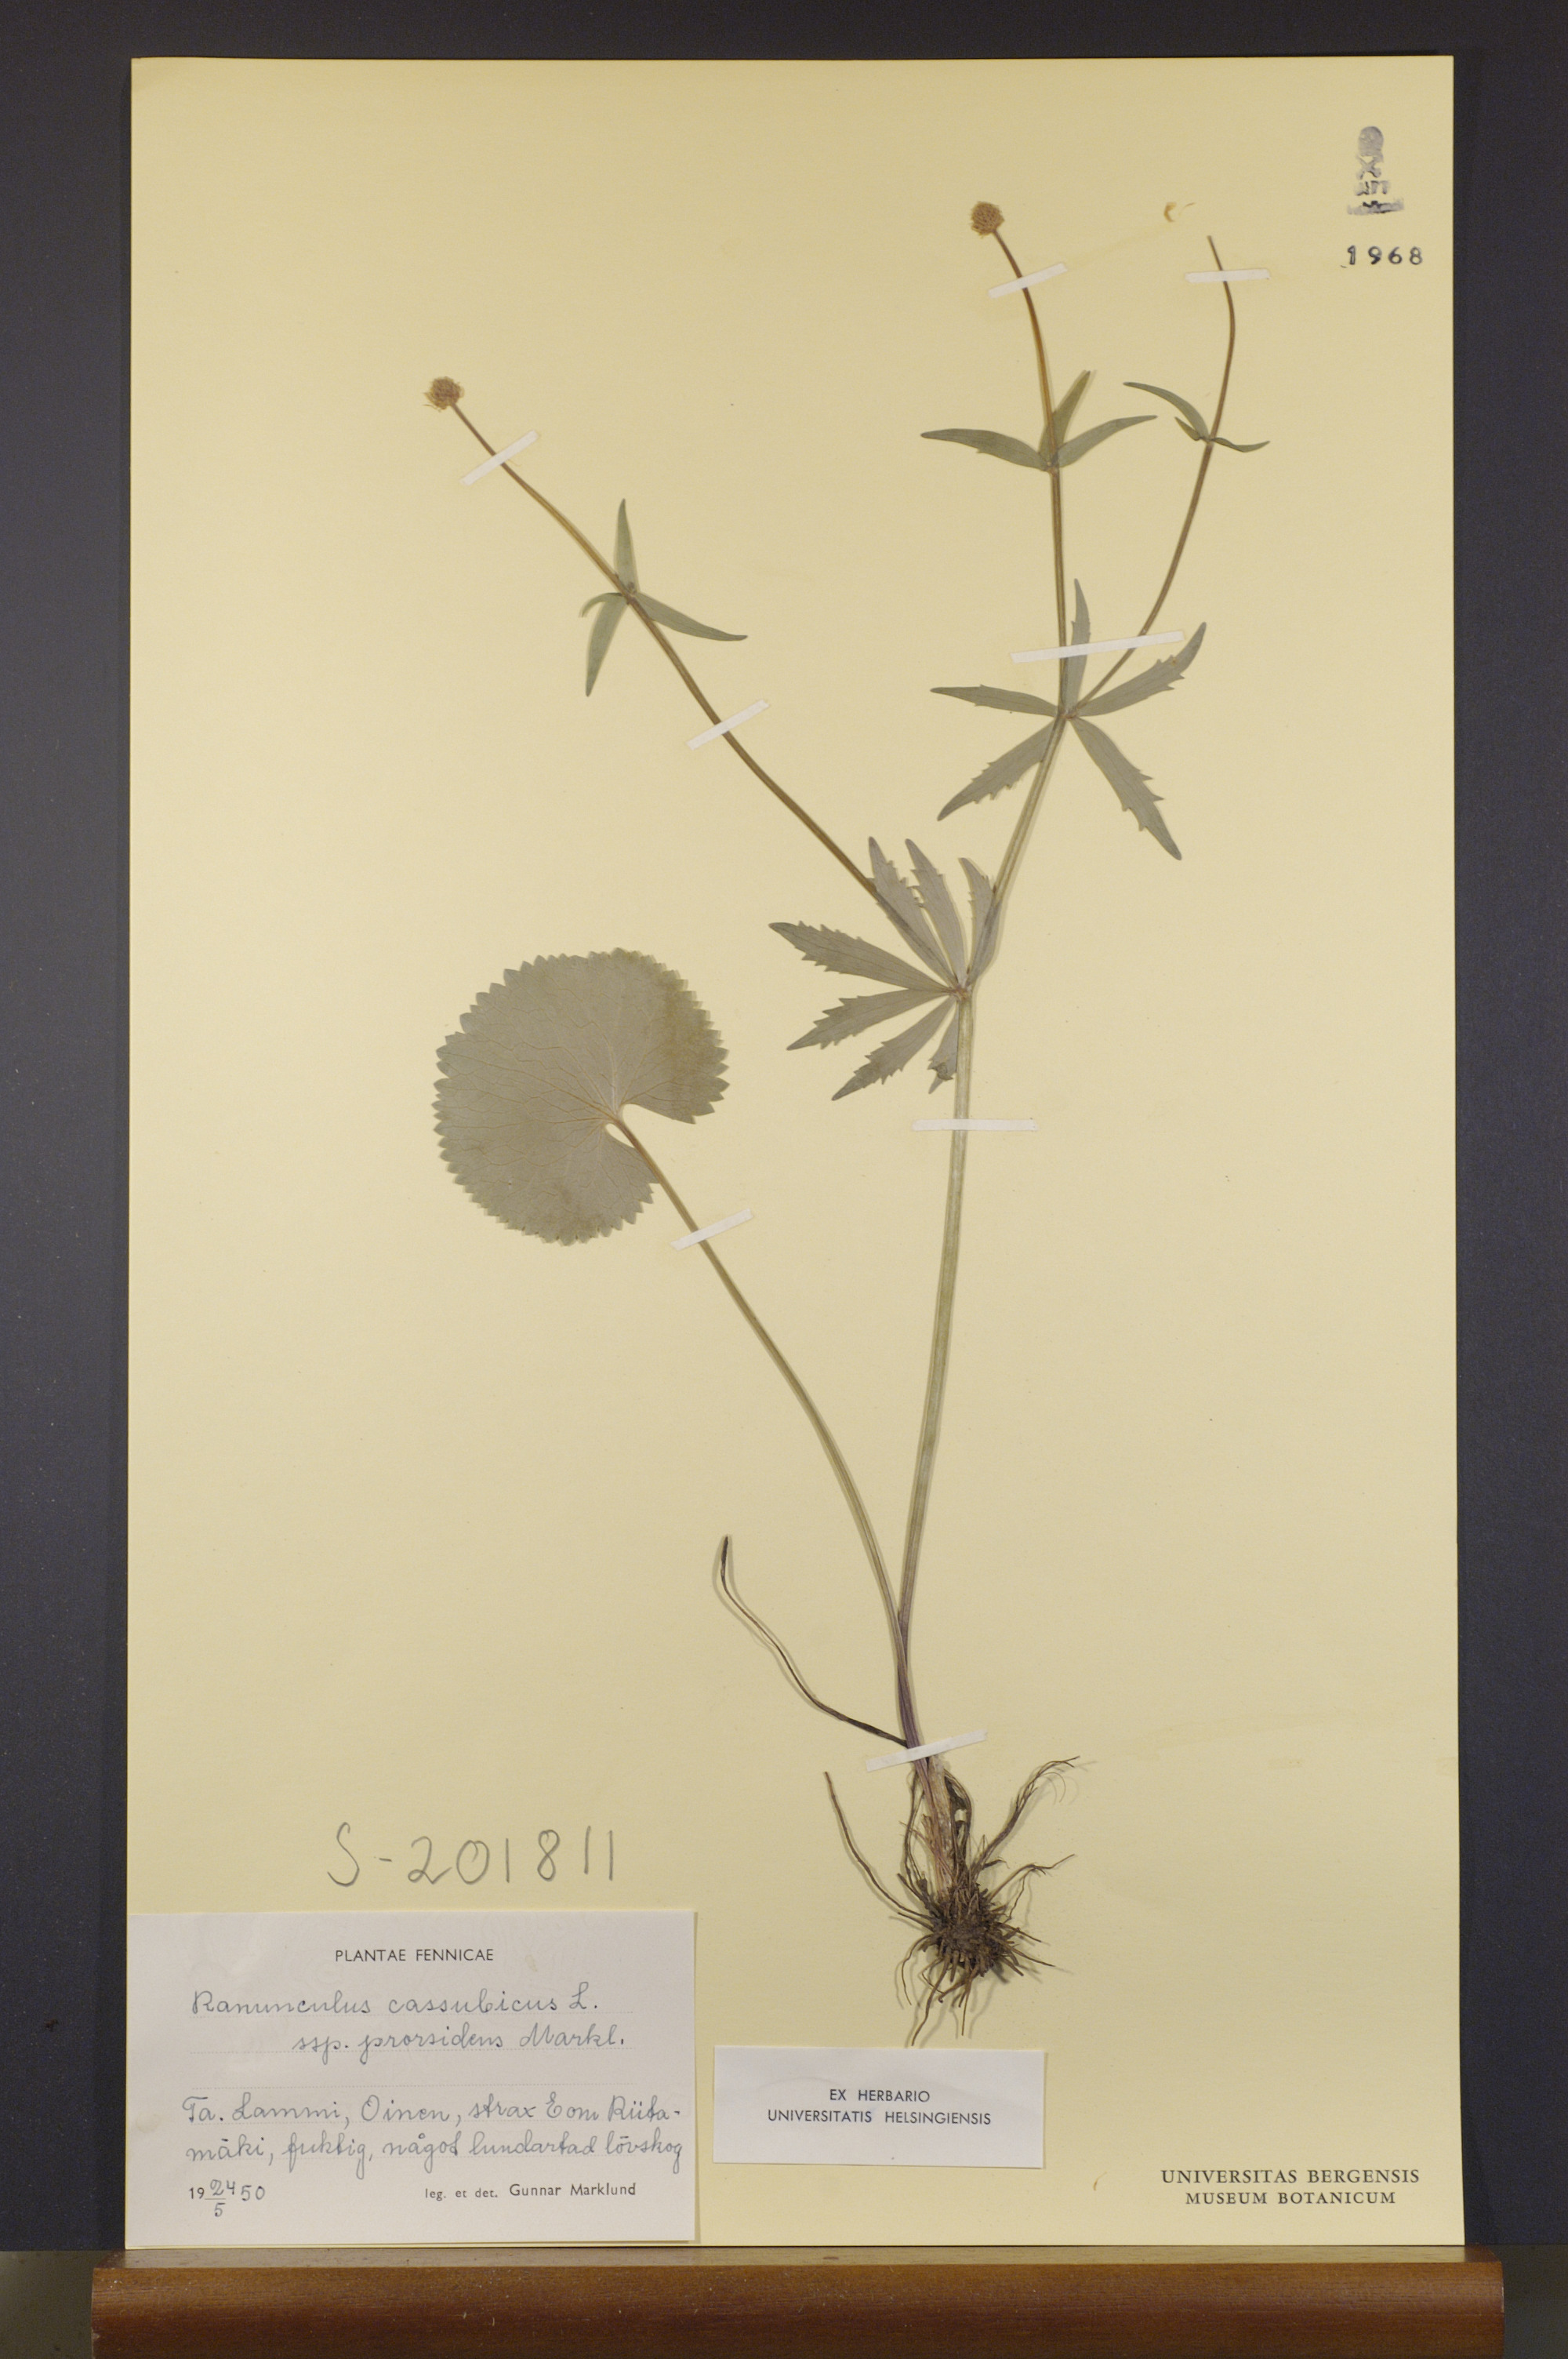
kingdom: Plantae
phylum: Tracheophyta
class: Magnoliopsida
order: Ranunculales
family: Ranunculaceae
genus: Ranunculus
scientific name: Ranunculus cassubicus
